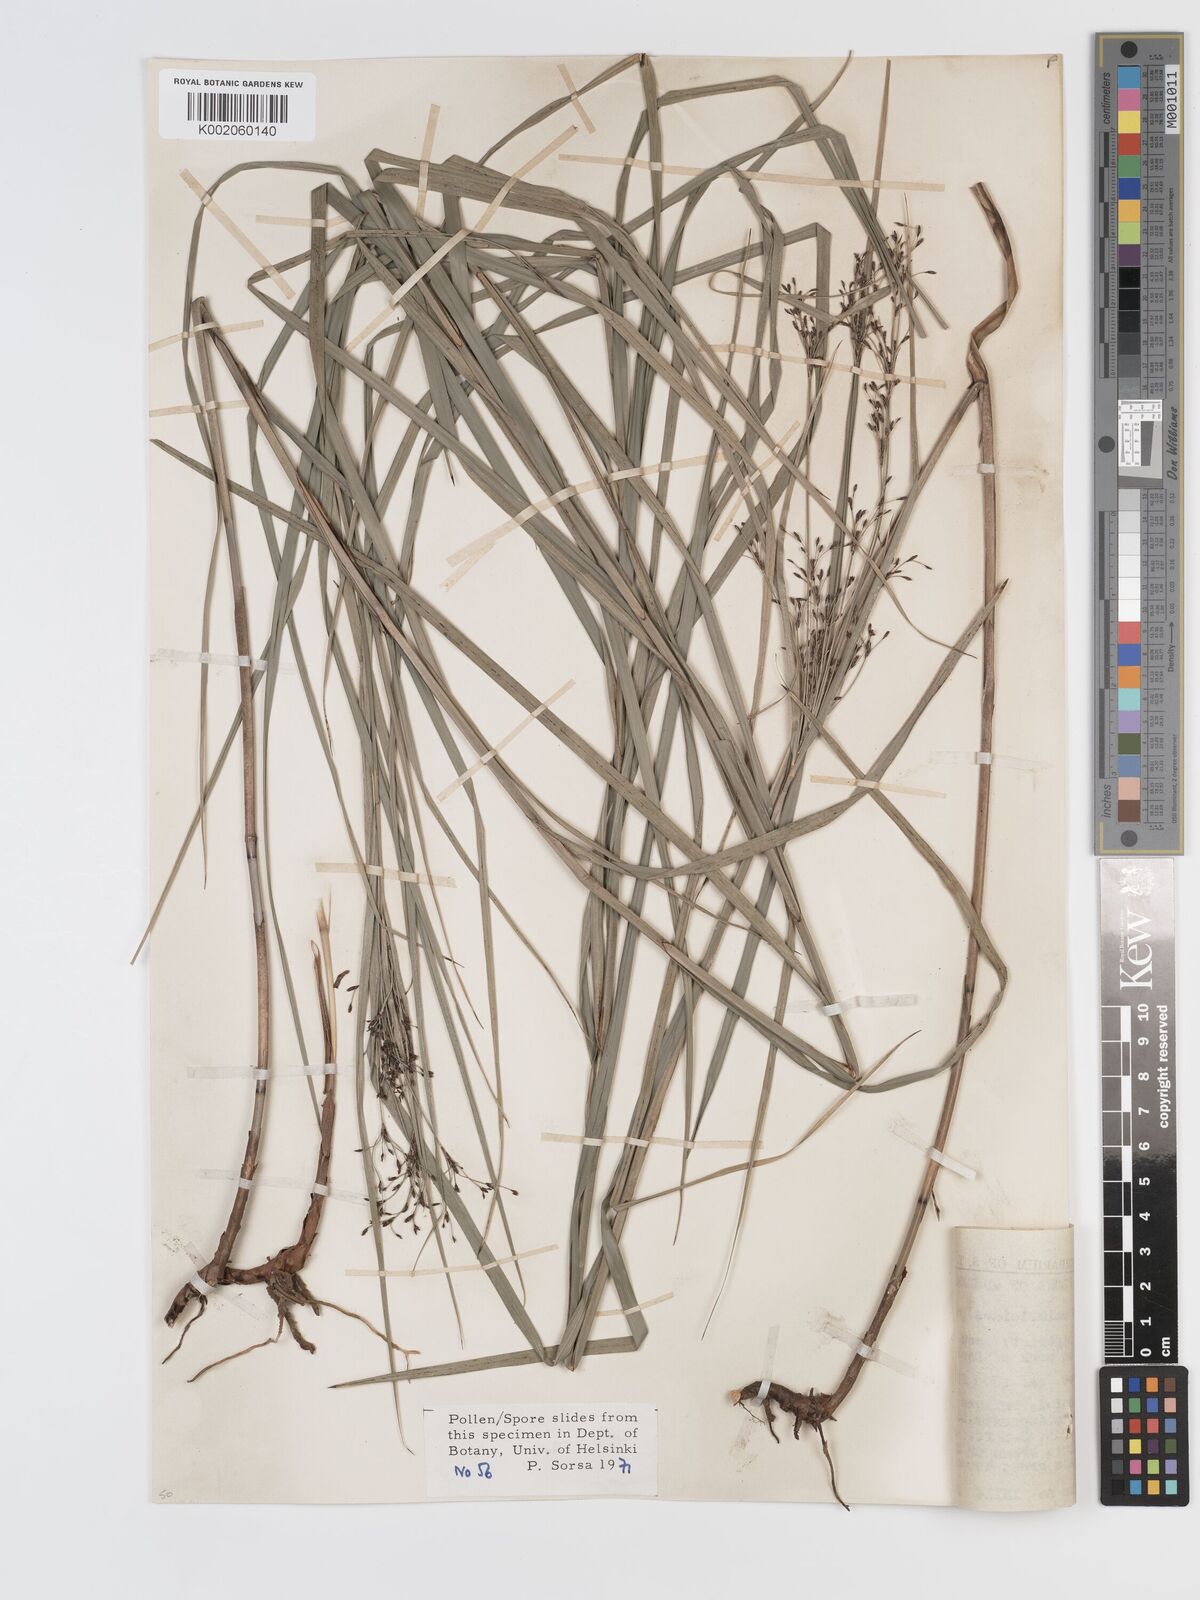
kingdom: Plantae
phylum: Tracheophyta
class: Liliopsida
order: Poales
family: Cyperaceae
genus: Exocarya
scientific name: Exocarya sclerioides
